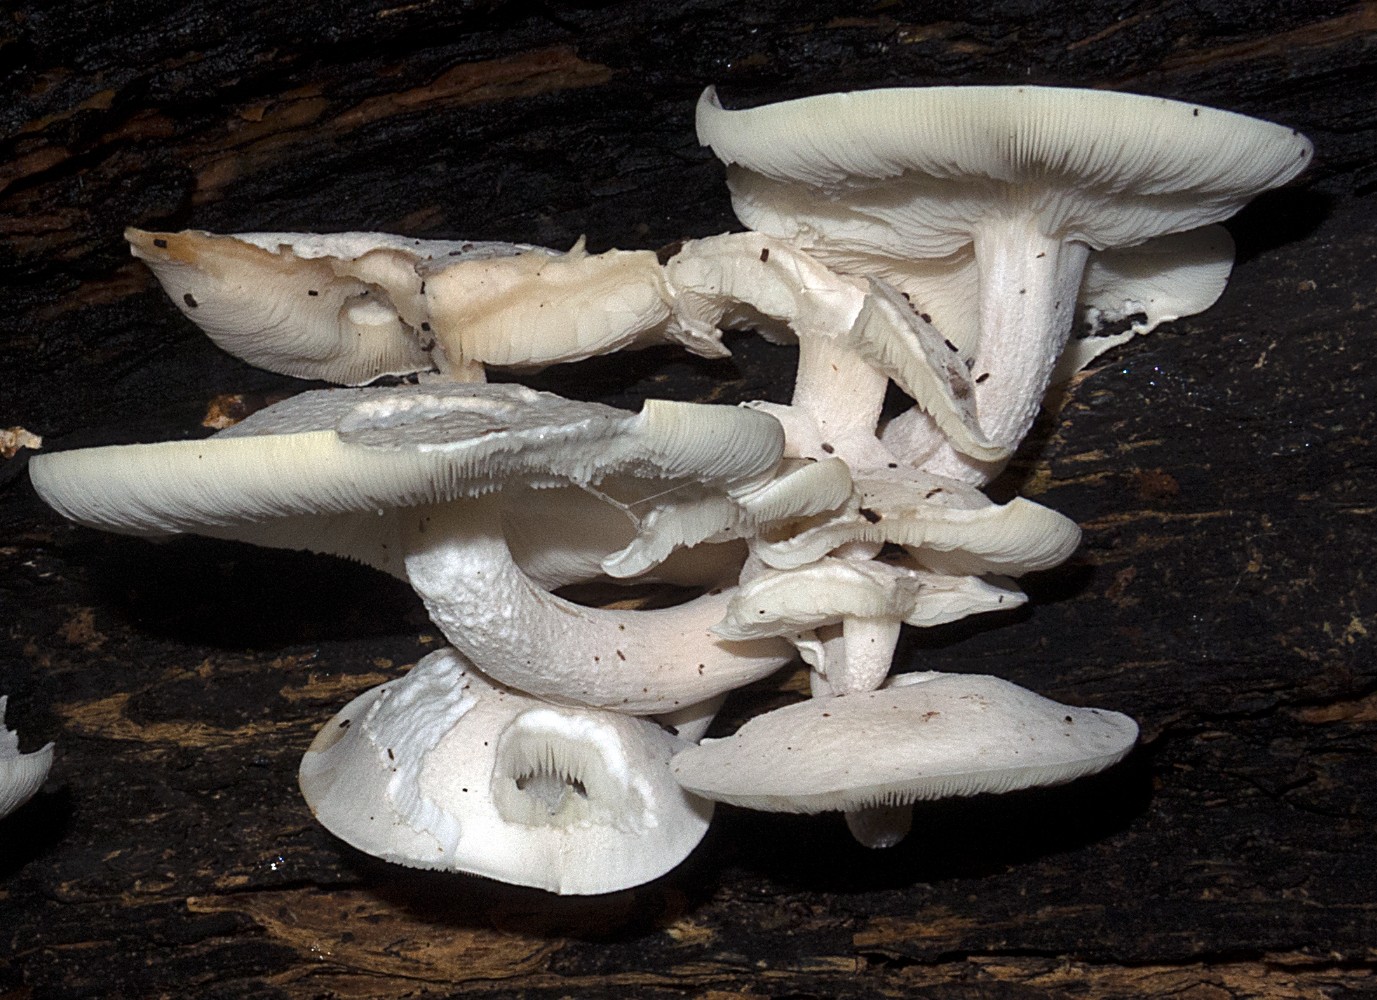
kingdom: Fungi
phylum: Basidiomycota
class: Agaricomycetes
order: Agaricales
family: Lyophyllaceae
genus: Ossicaulis
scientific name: Ossicaulis lignatilis
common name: hvidlig vedtragthat
